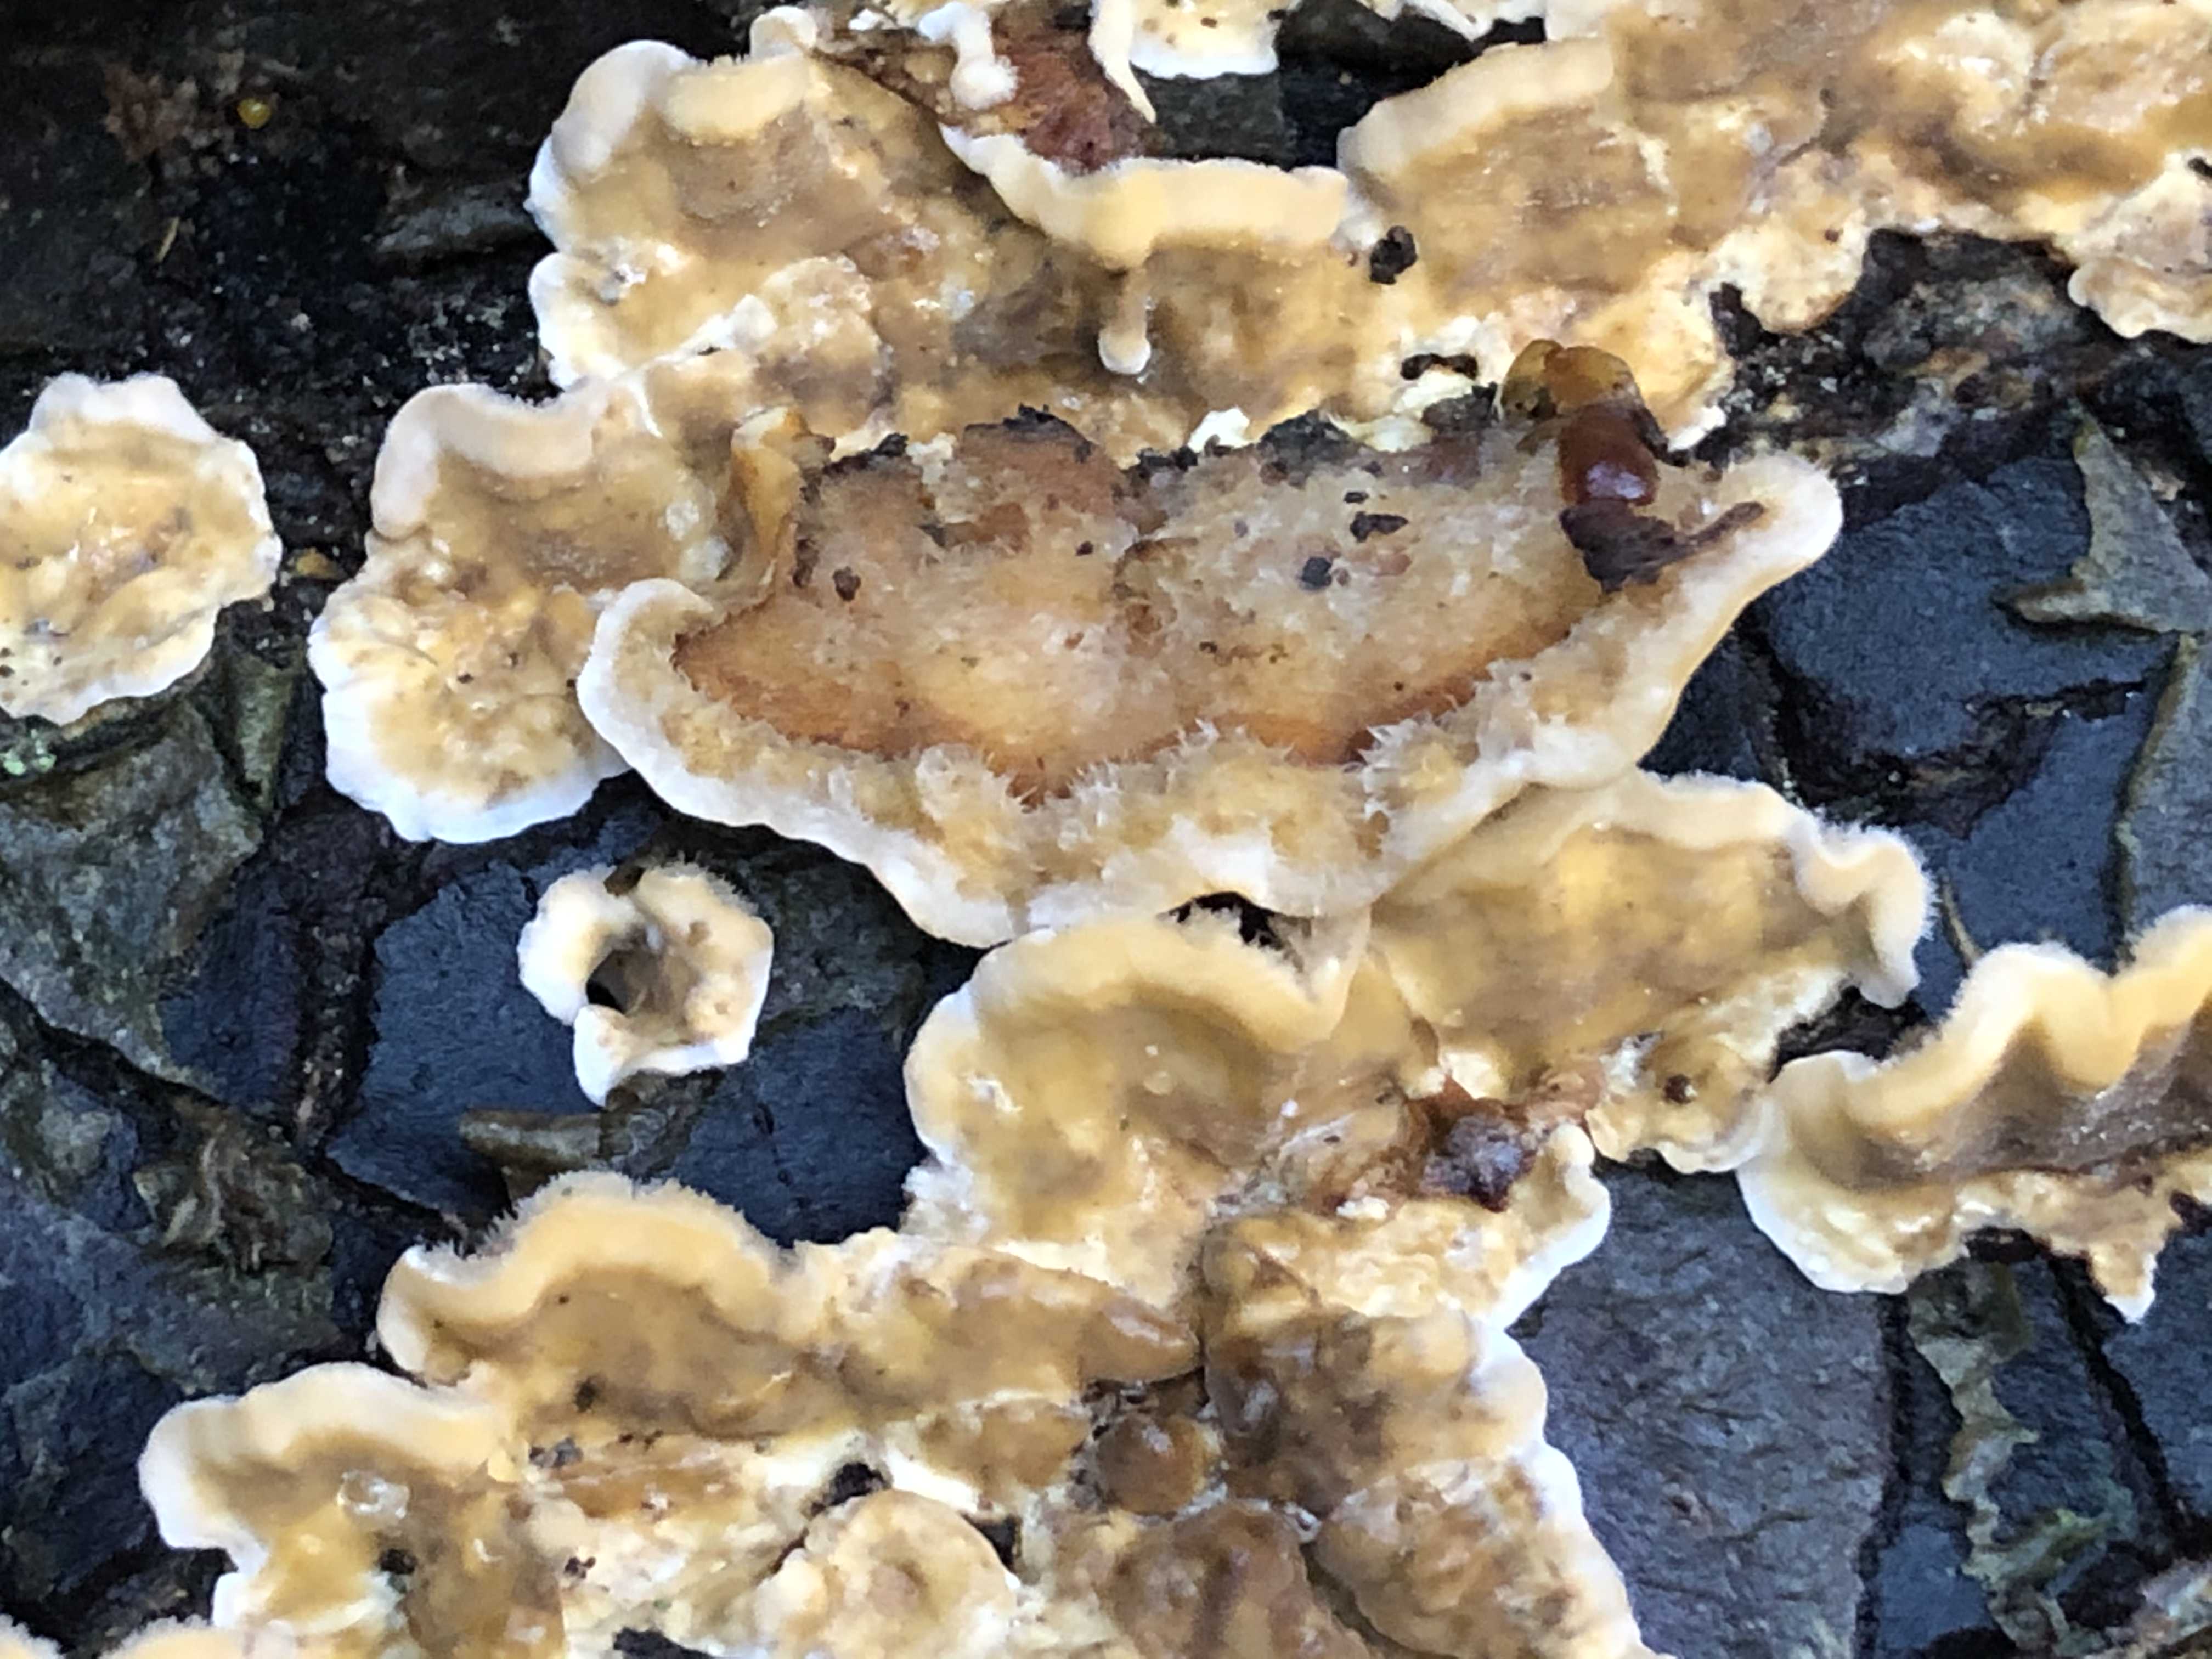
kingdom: Fungi
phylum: Basidiomycota
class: Agaricomycetes
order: Russulales
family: Stereaceae
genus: Stereum
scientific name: Stereum hirsutum
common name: håret lædersvamp
